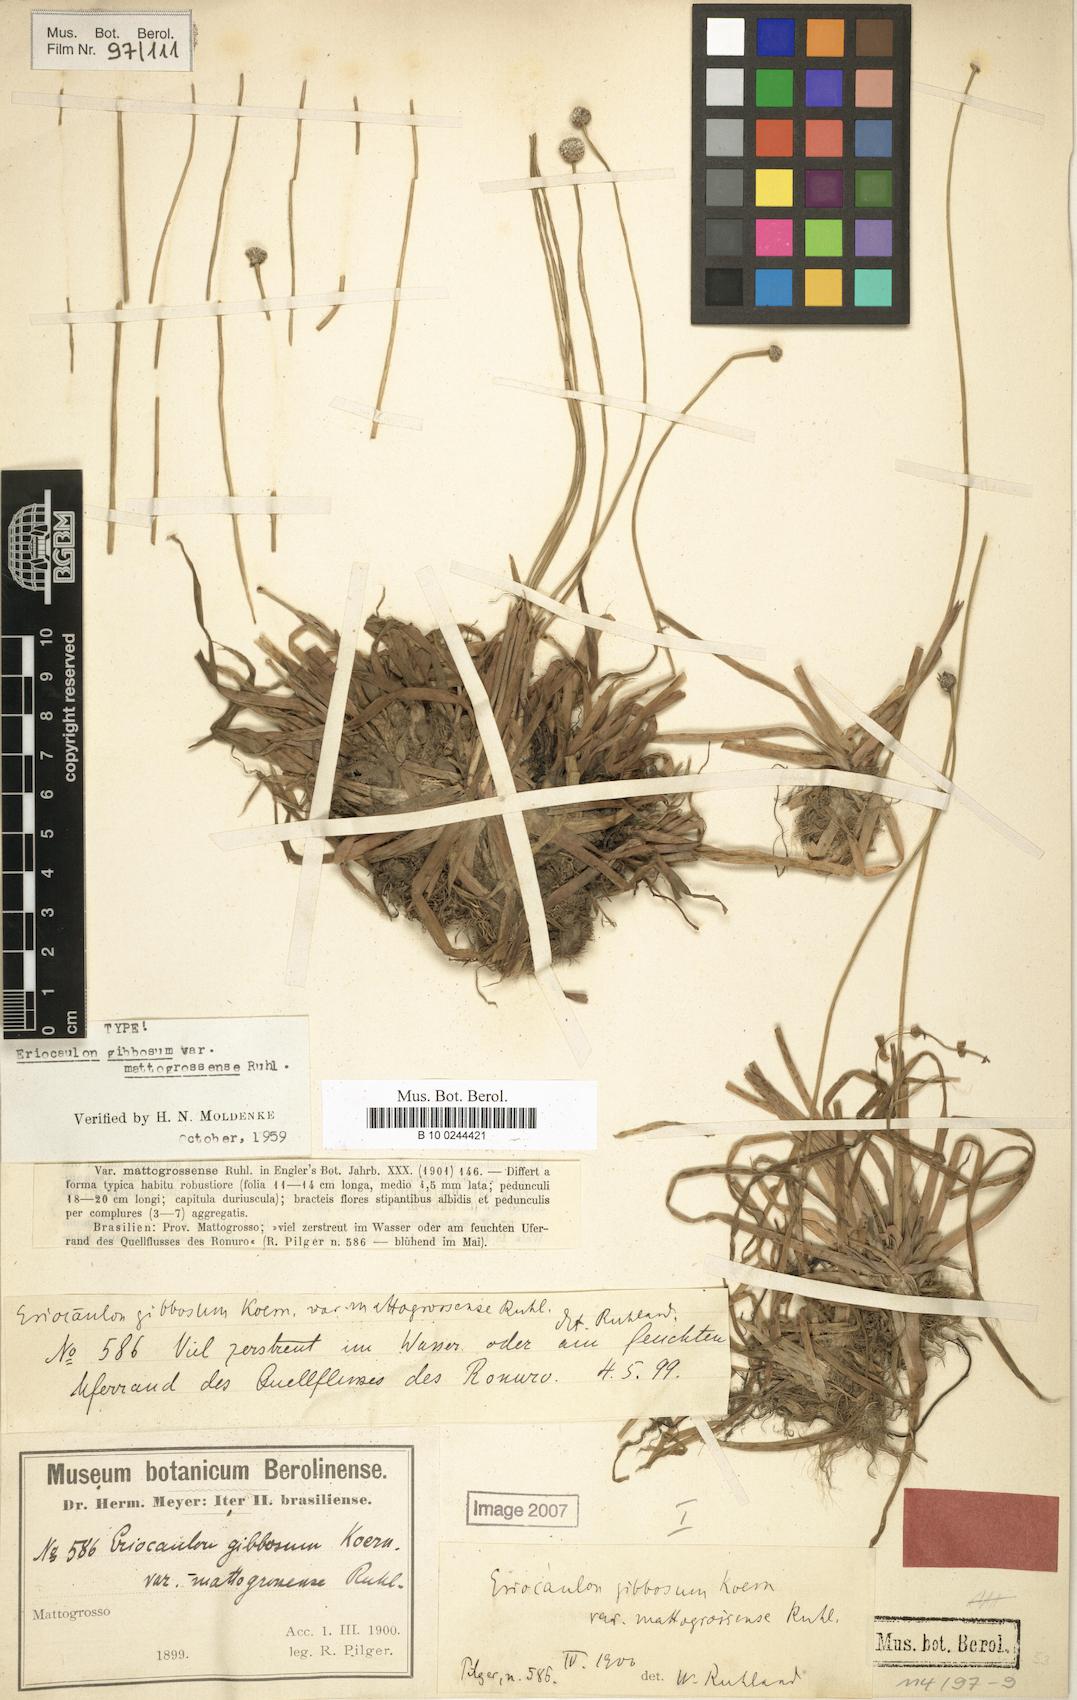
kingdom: Plantae
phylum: Tracheophyta
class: Liliopsida
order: Poales
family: Eriocaulaceae
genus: Eriocaulon
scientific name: Eriocaulon gibbosum
